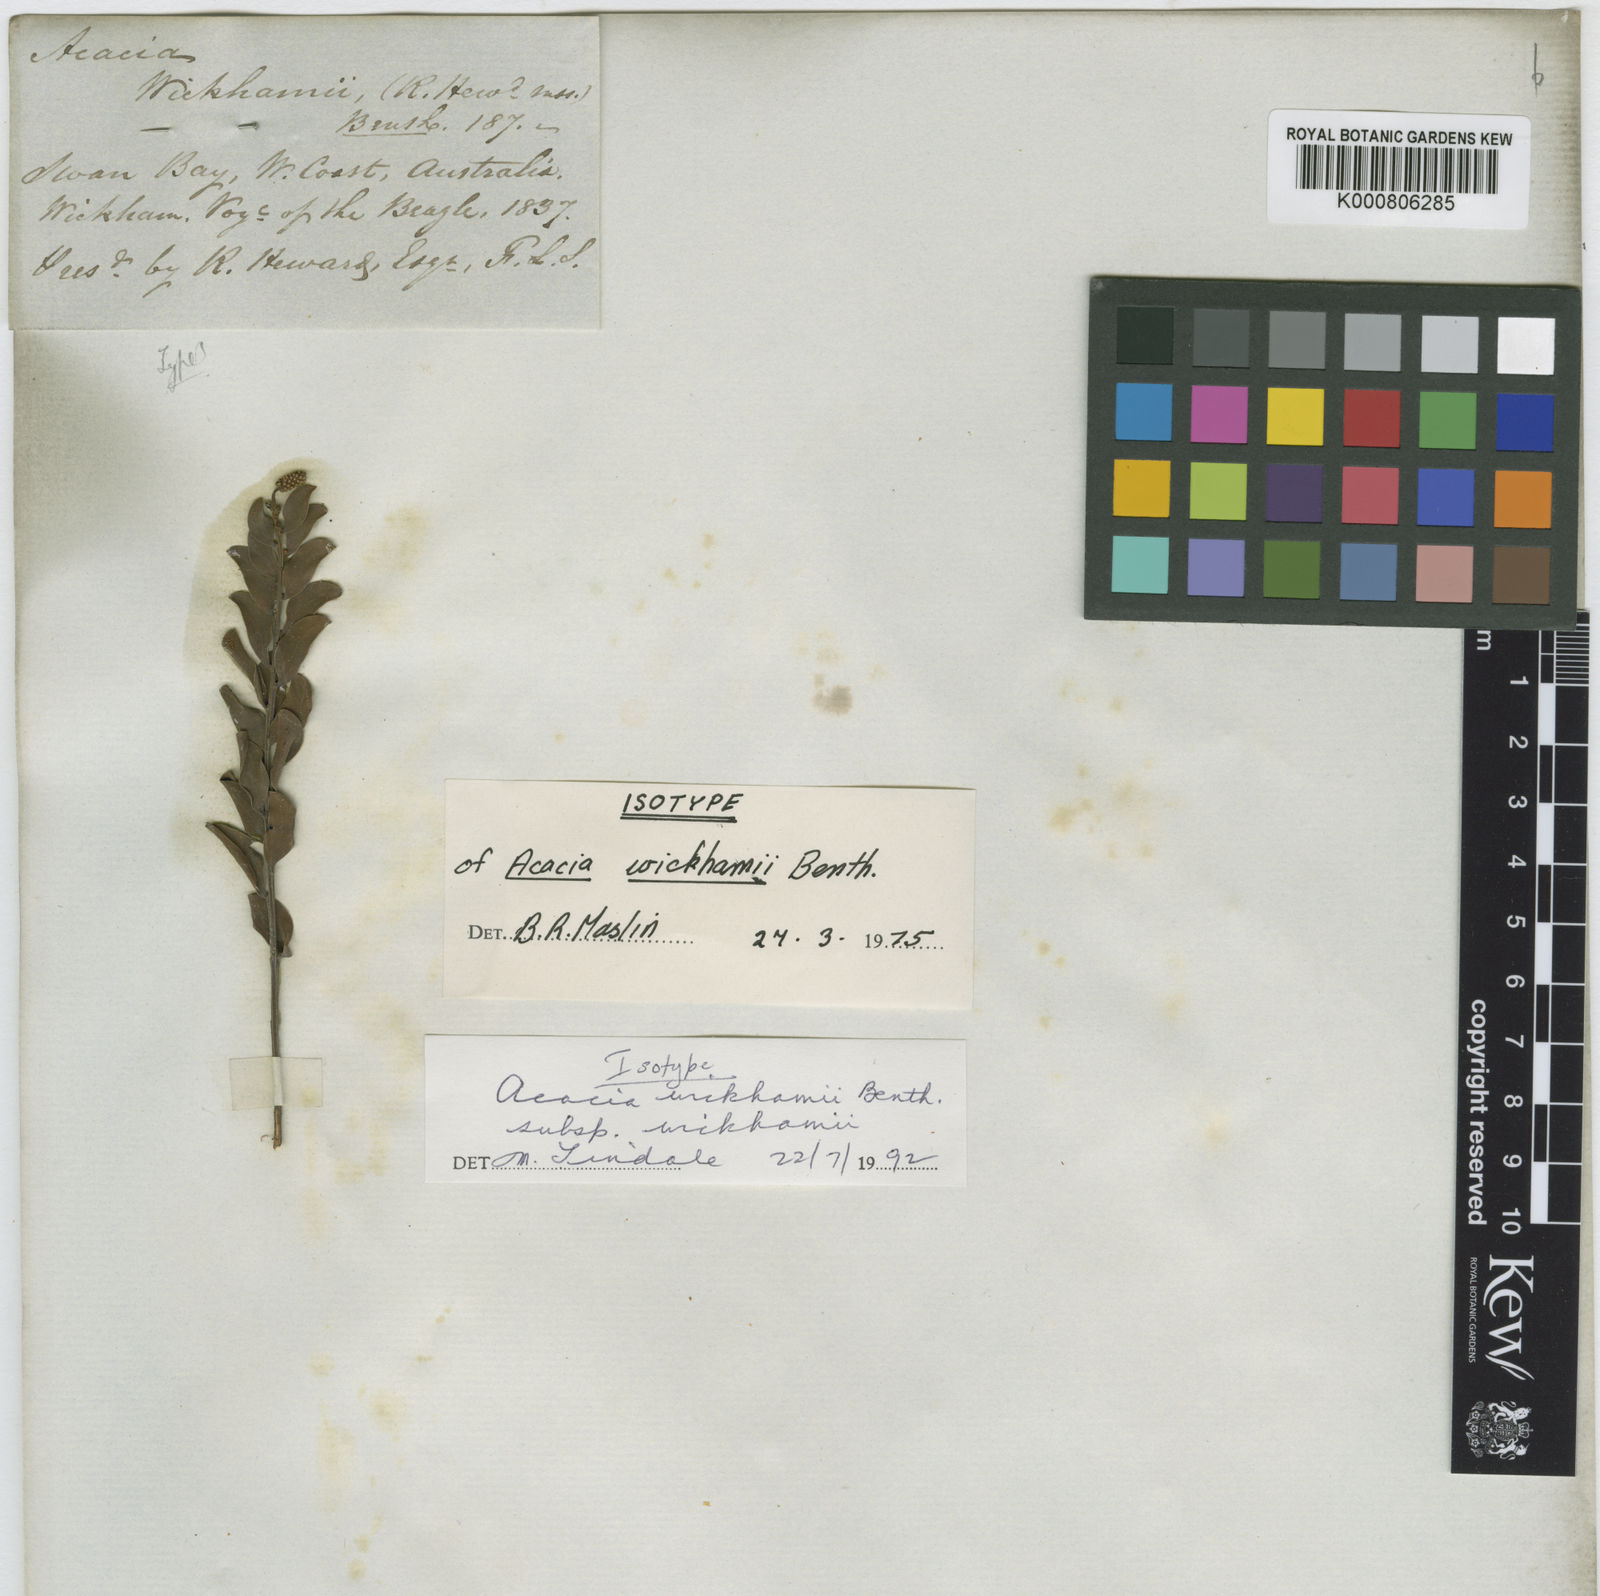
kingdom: Plantae
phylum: Tracheophyta
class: Magnoliopsida
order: Fabales
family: Fabaceae
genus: Acacia
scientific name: Acacia wickhamii
